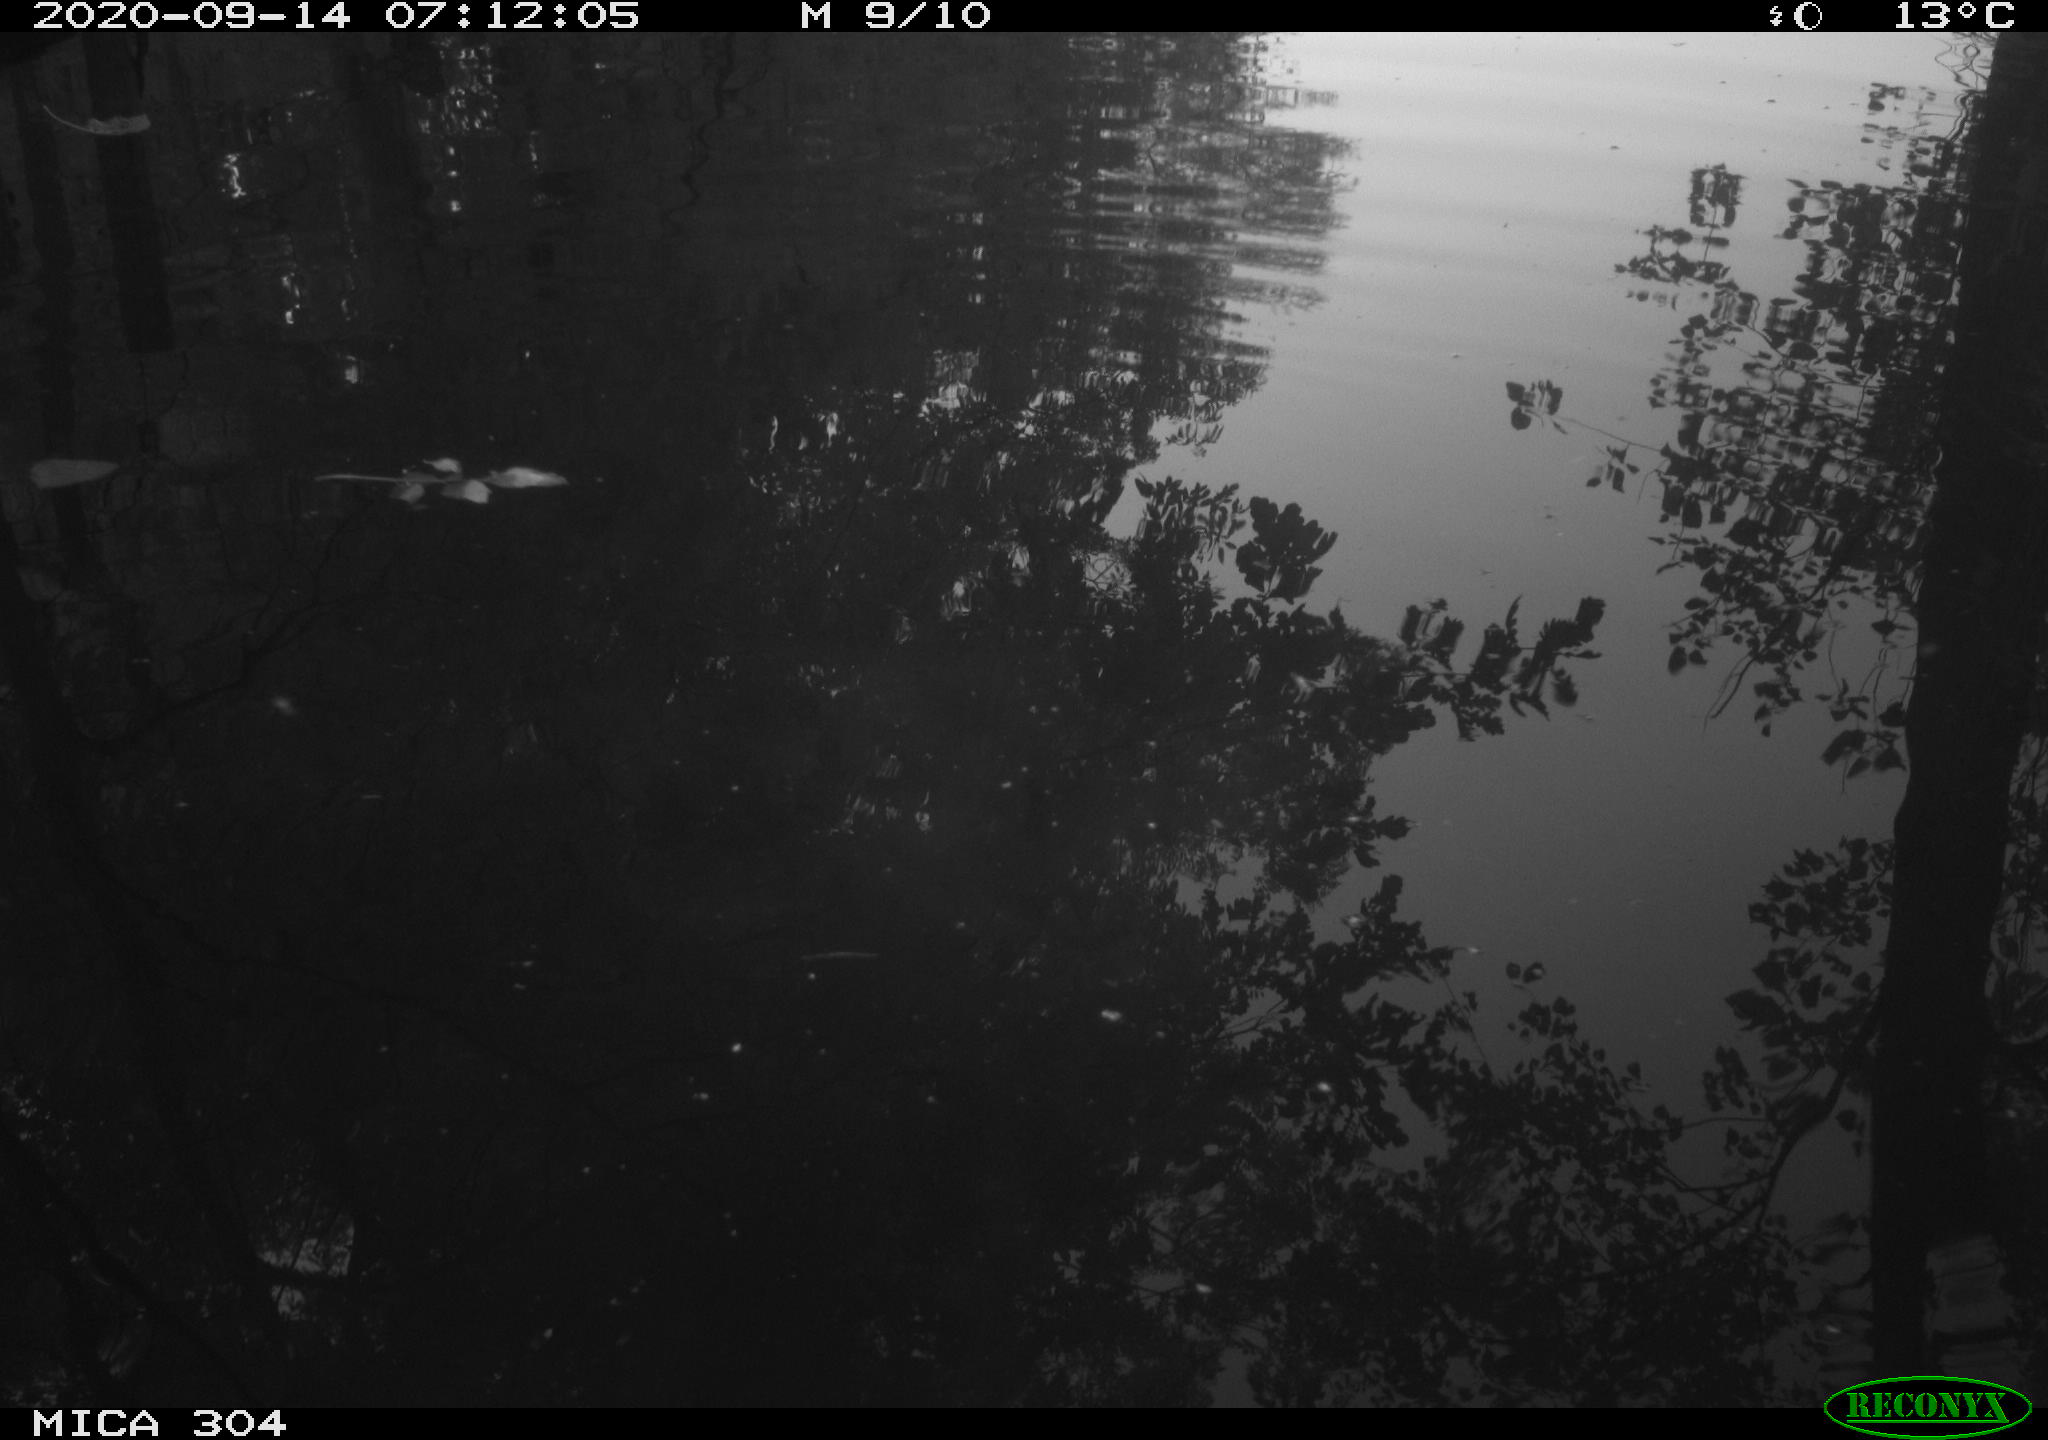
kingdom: Animalia
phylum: Chordata
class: Aves
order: Gruiformes
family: Rallidae
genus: Gallinula
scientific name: Gallinula chloropus
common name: Common moorhen
